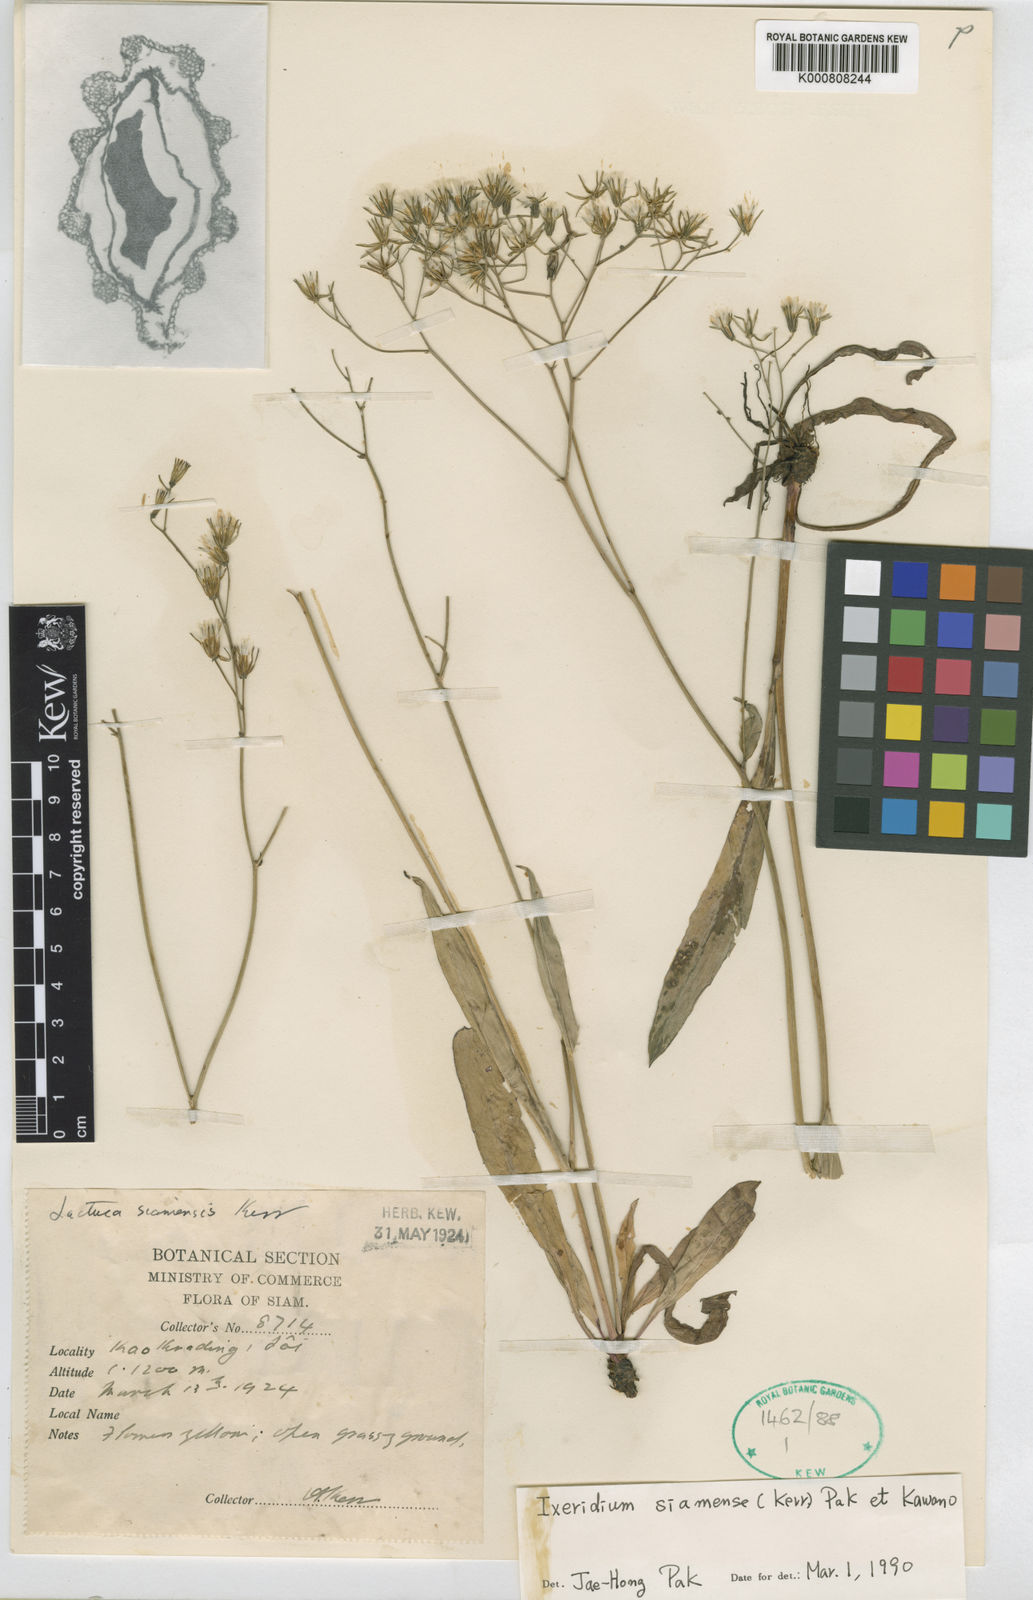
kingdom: Plantae
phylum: Tracheophyta
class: Magnoliopsida
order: Asterales
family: Asteraceae
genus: Ixeris
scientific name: Ixeris siamensis
